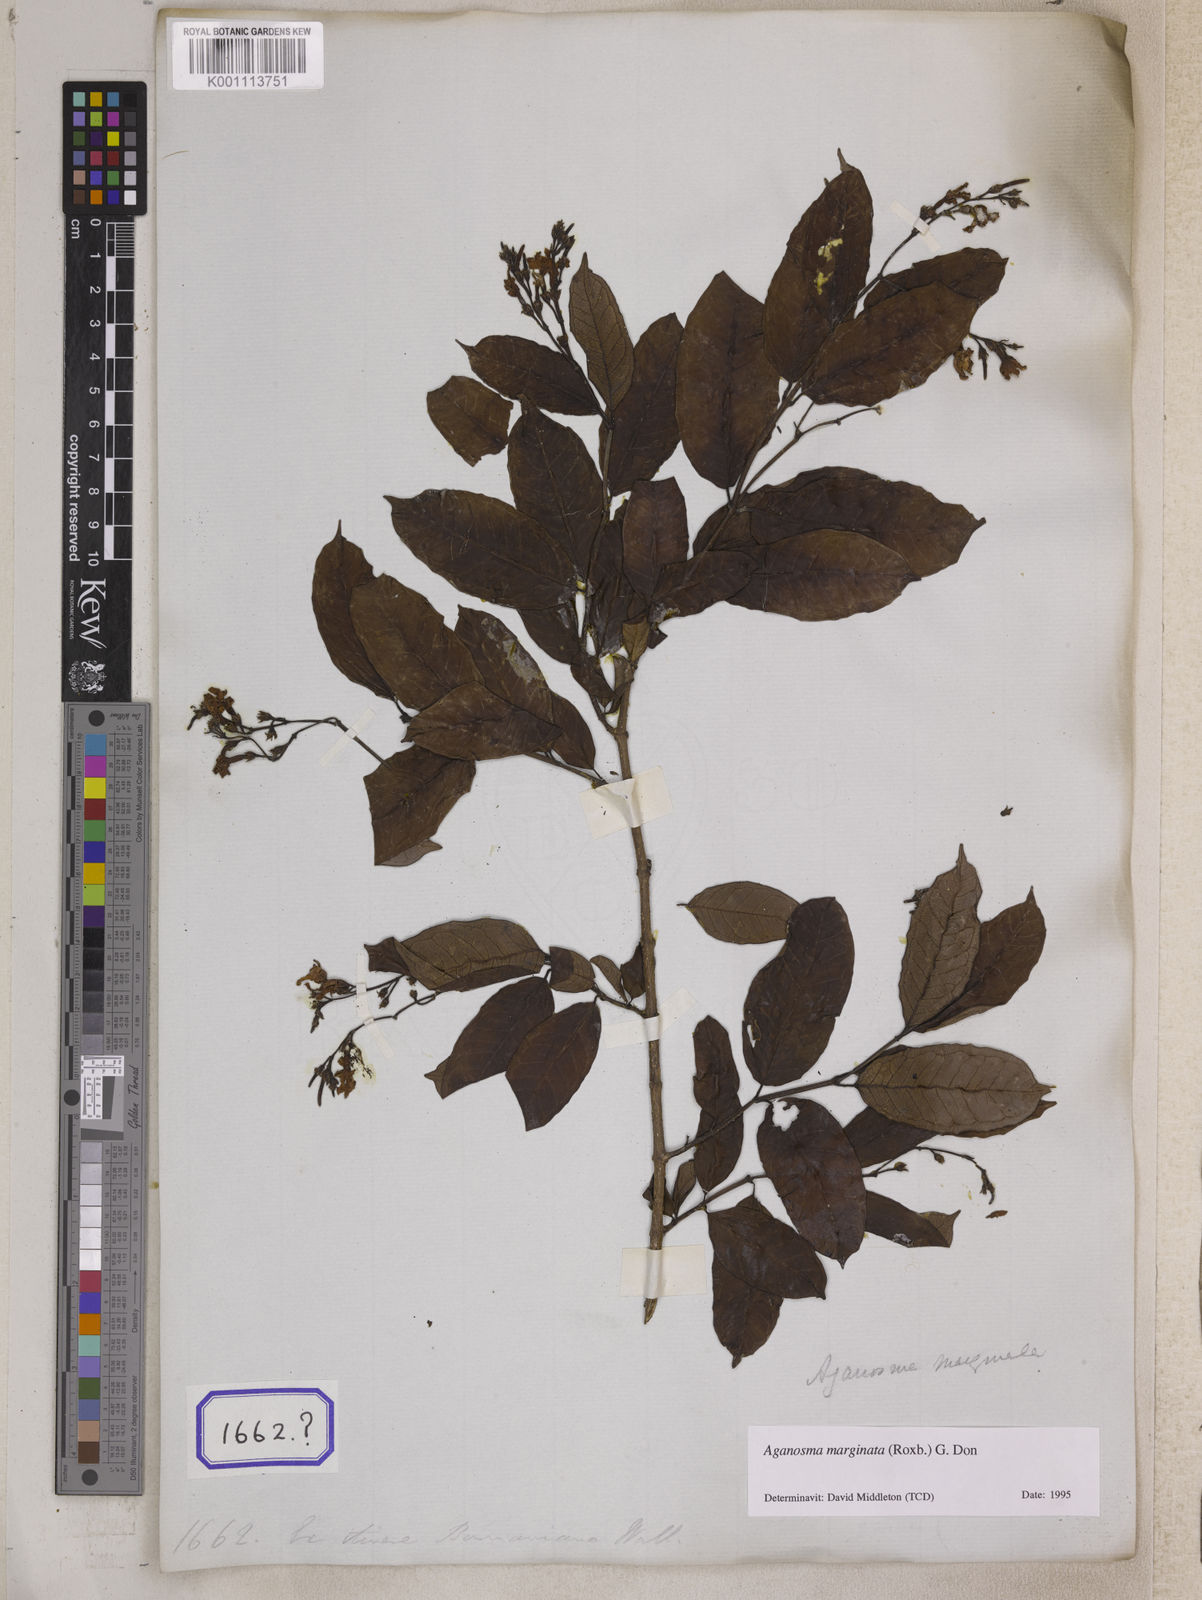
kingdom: Plantae
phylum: Tracheophyta
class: Magnoliopsida
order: Gentianales
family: Apocynaceae
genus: Echites
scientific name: Echites
